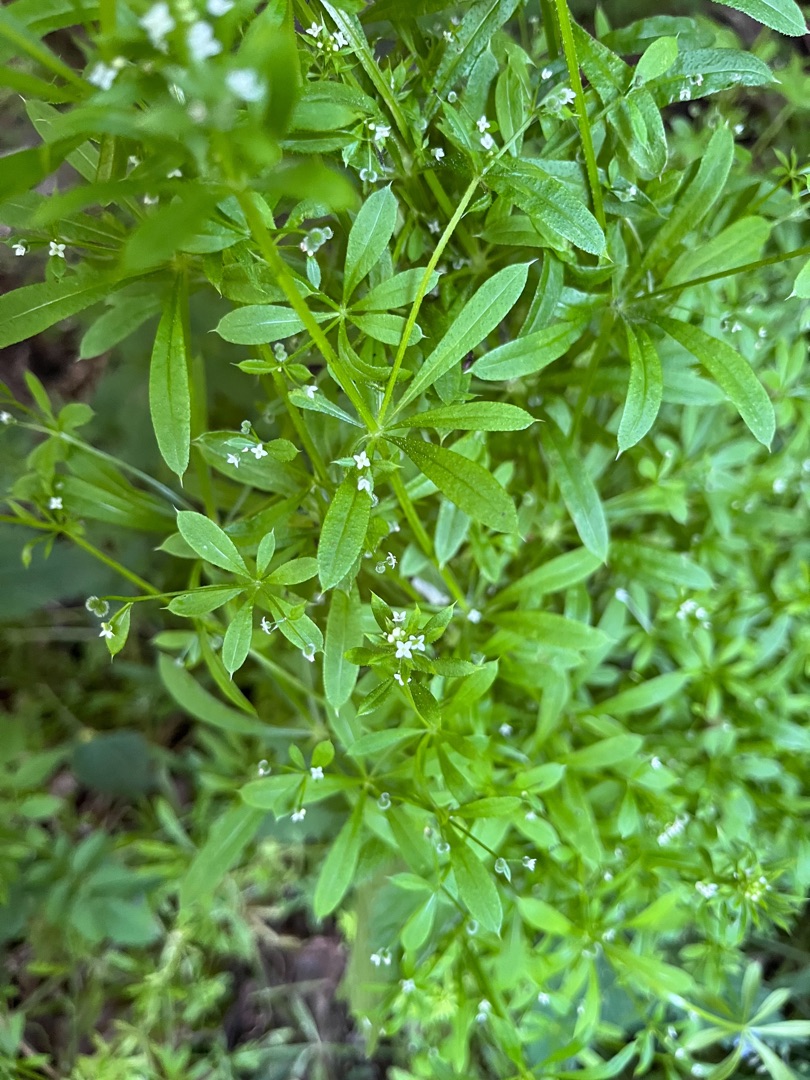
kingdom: Plantae
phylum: Tracheophyta
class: Magnoliopsida
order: Gentianales
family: Rubiaceae
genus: Galium
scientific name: Galium aparine
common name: Burre-snerre
